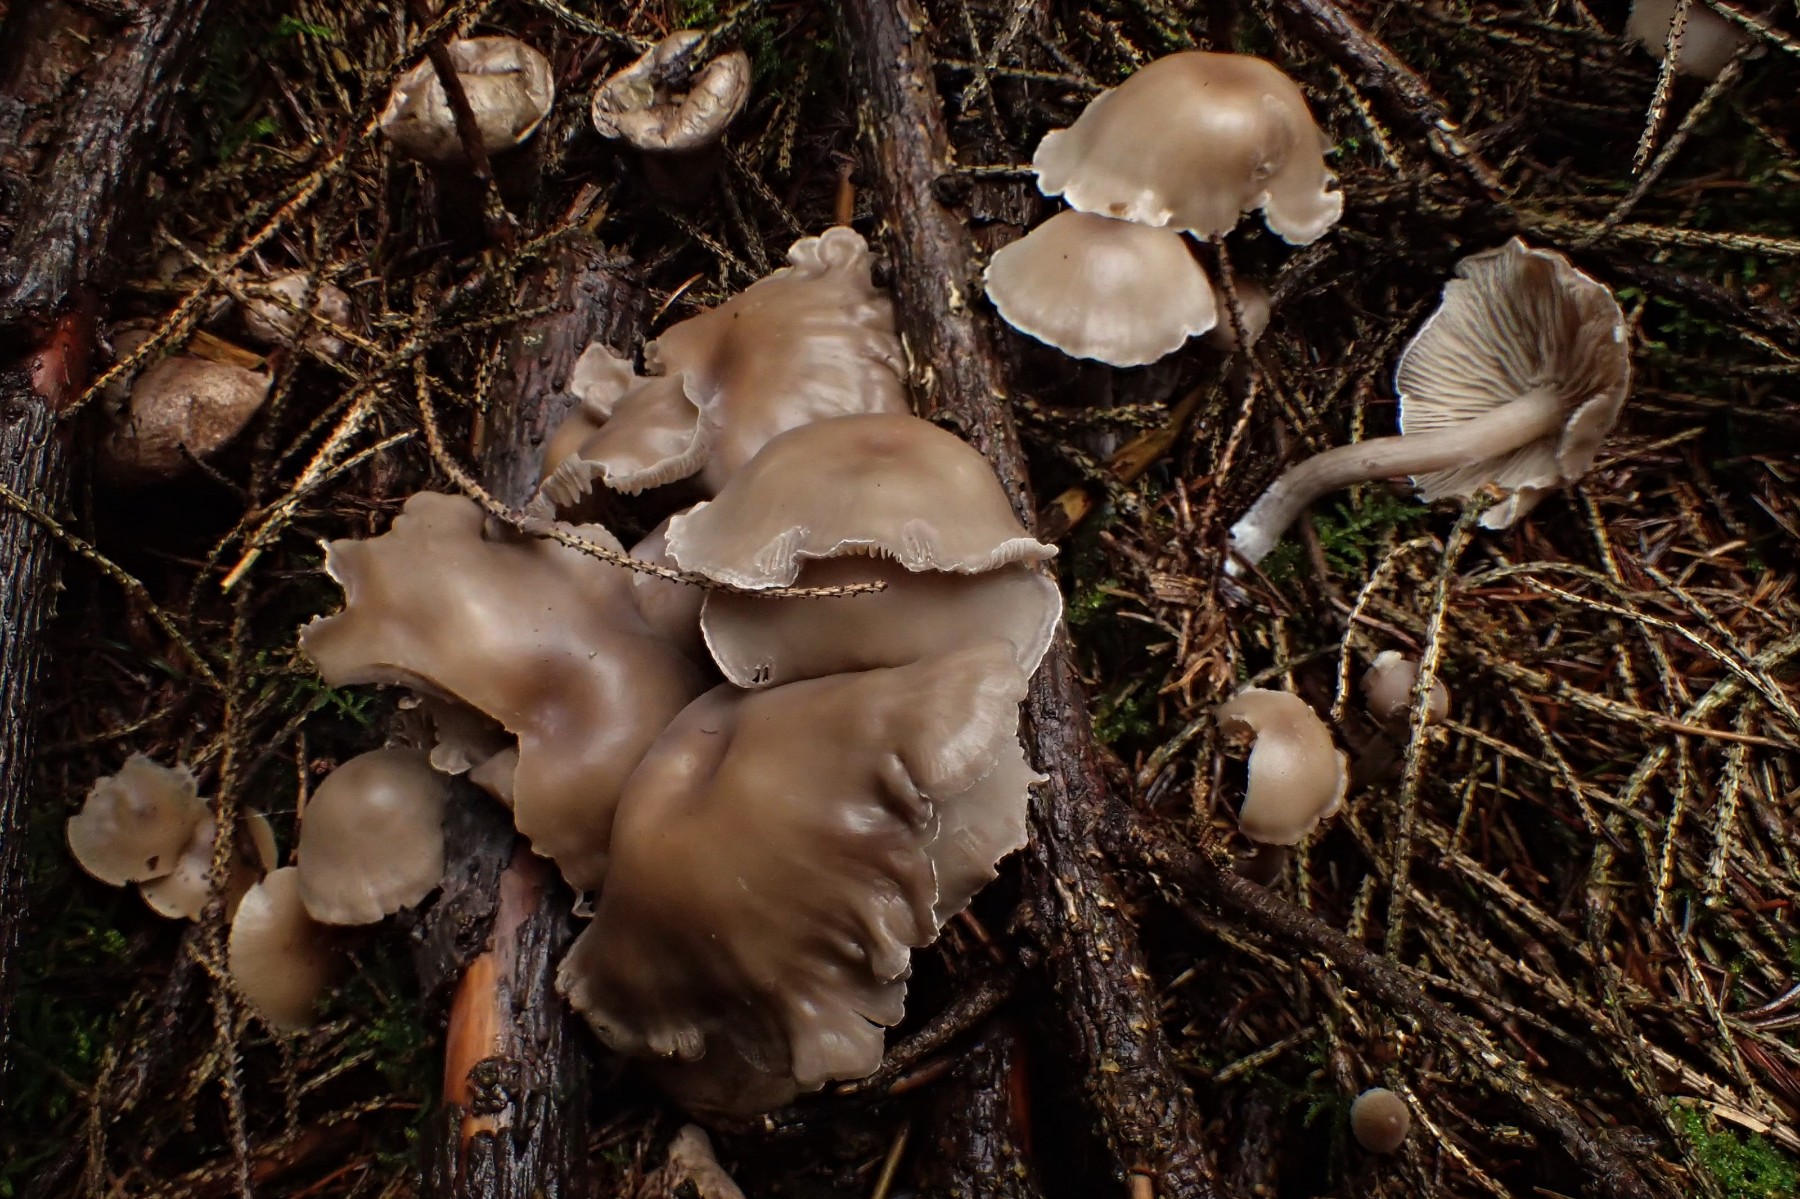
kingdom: Fungi
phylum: Basidiomycota
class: Agaricomycetes
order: Agaricales
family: Tricholomataceae
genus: Clitocybe
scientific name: Clitocybe
